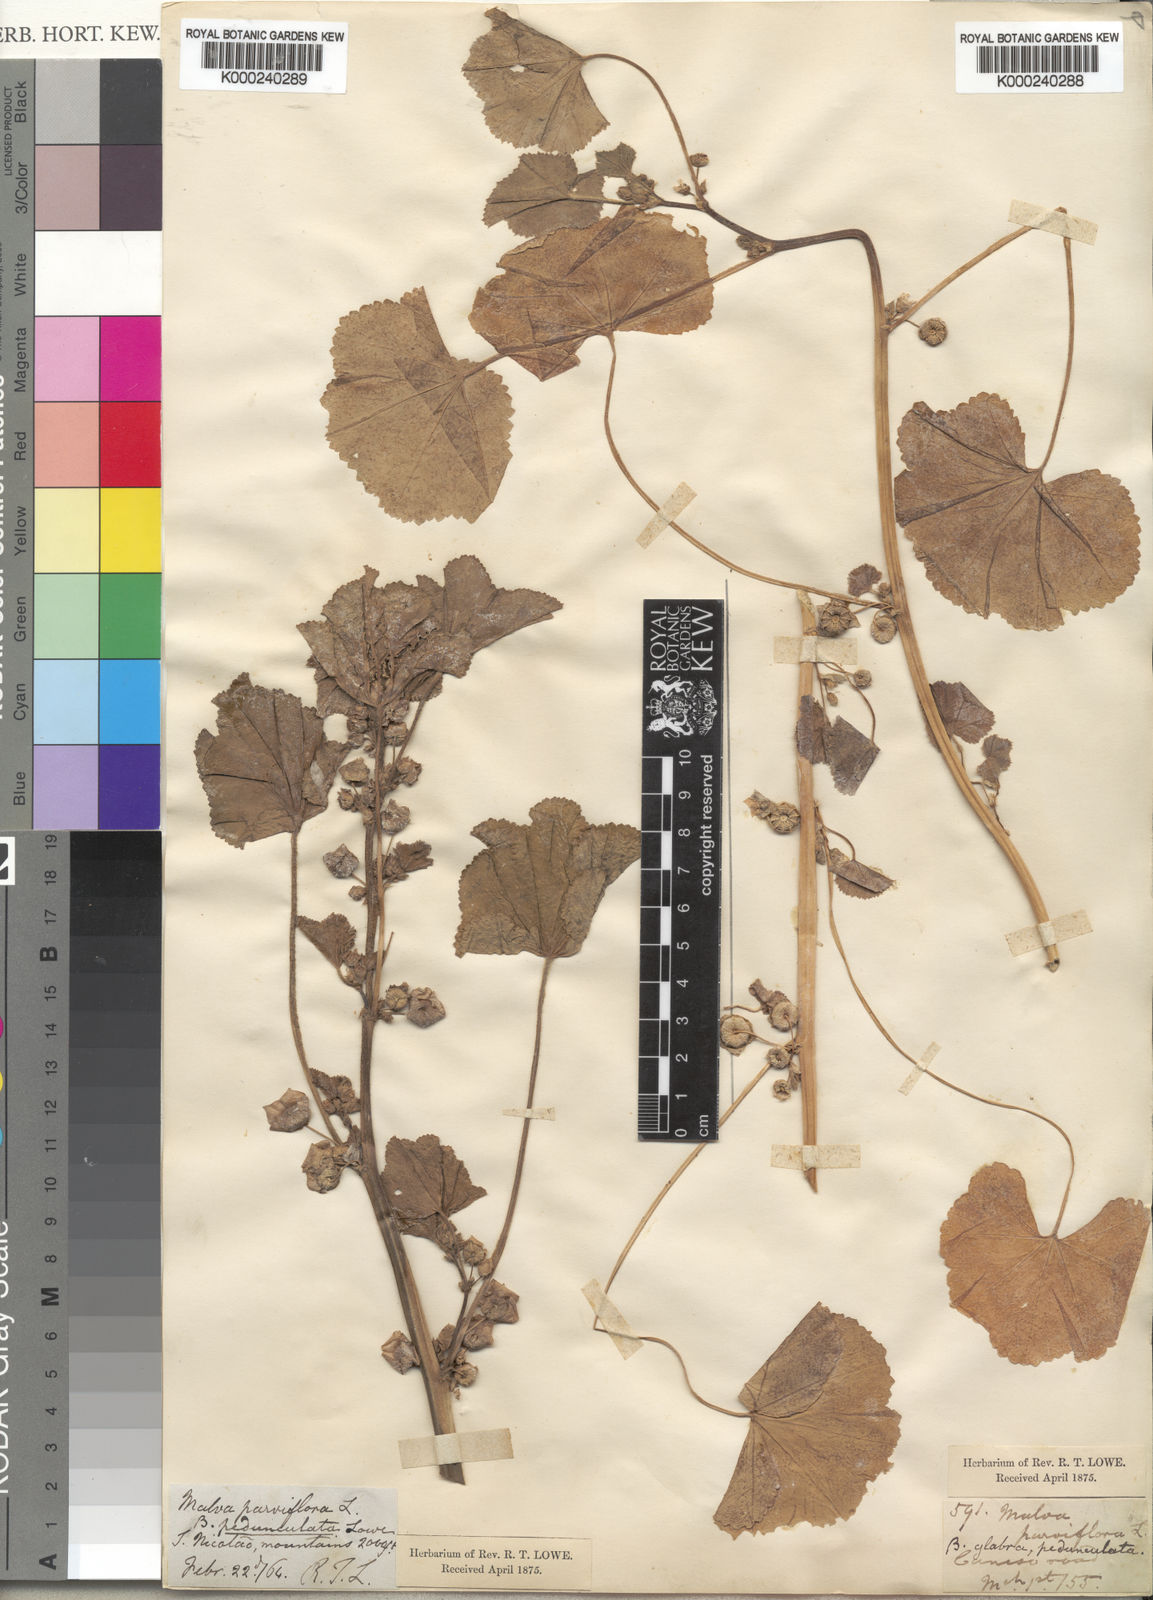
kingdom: Plantae
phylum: Tracheophyta
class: Magnoliopsida
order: Malvales
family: Malvaceae
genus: Malva
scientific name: Malva parviflora
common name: Least mallow
